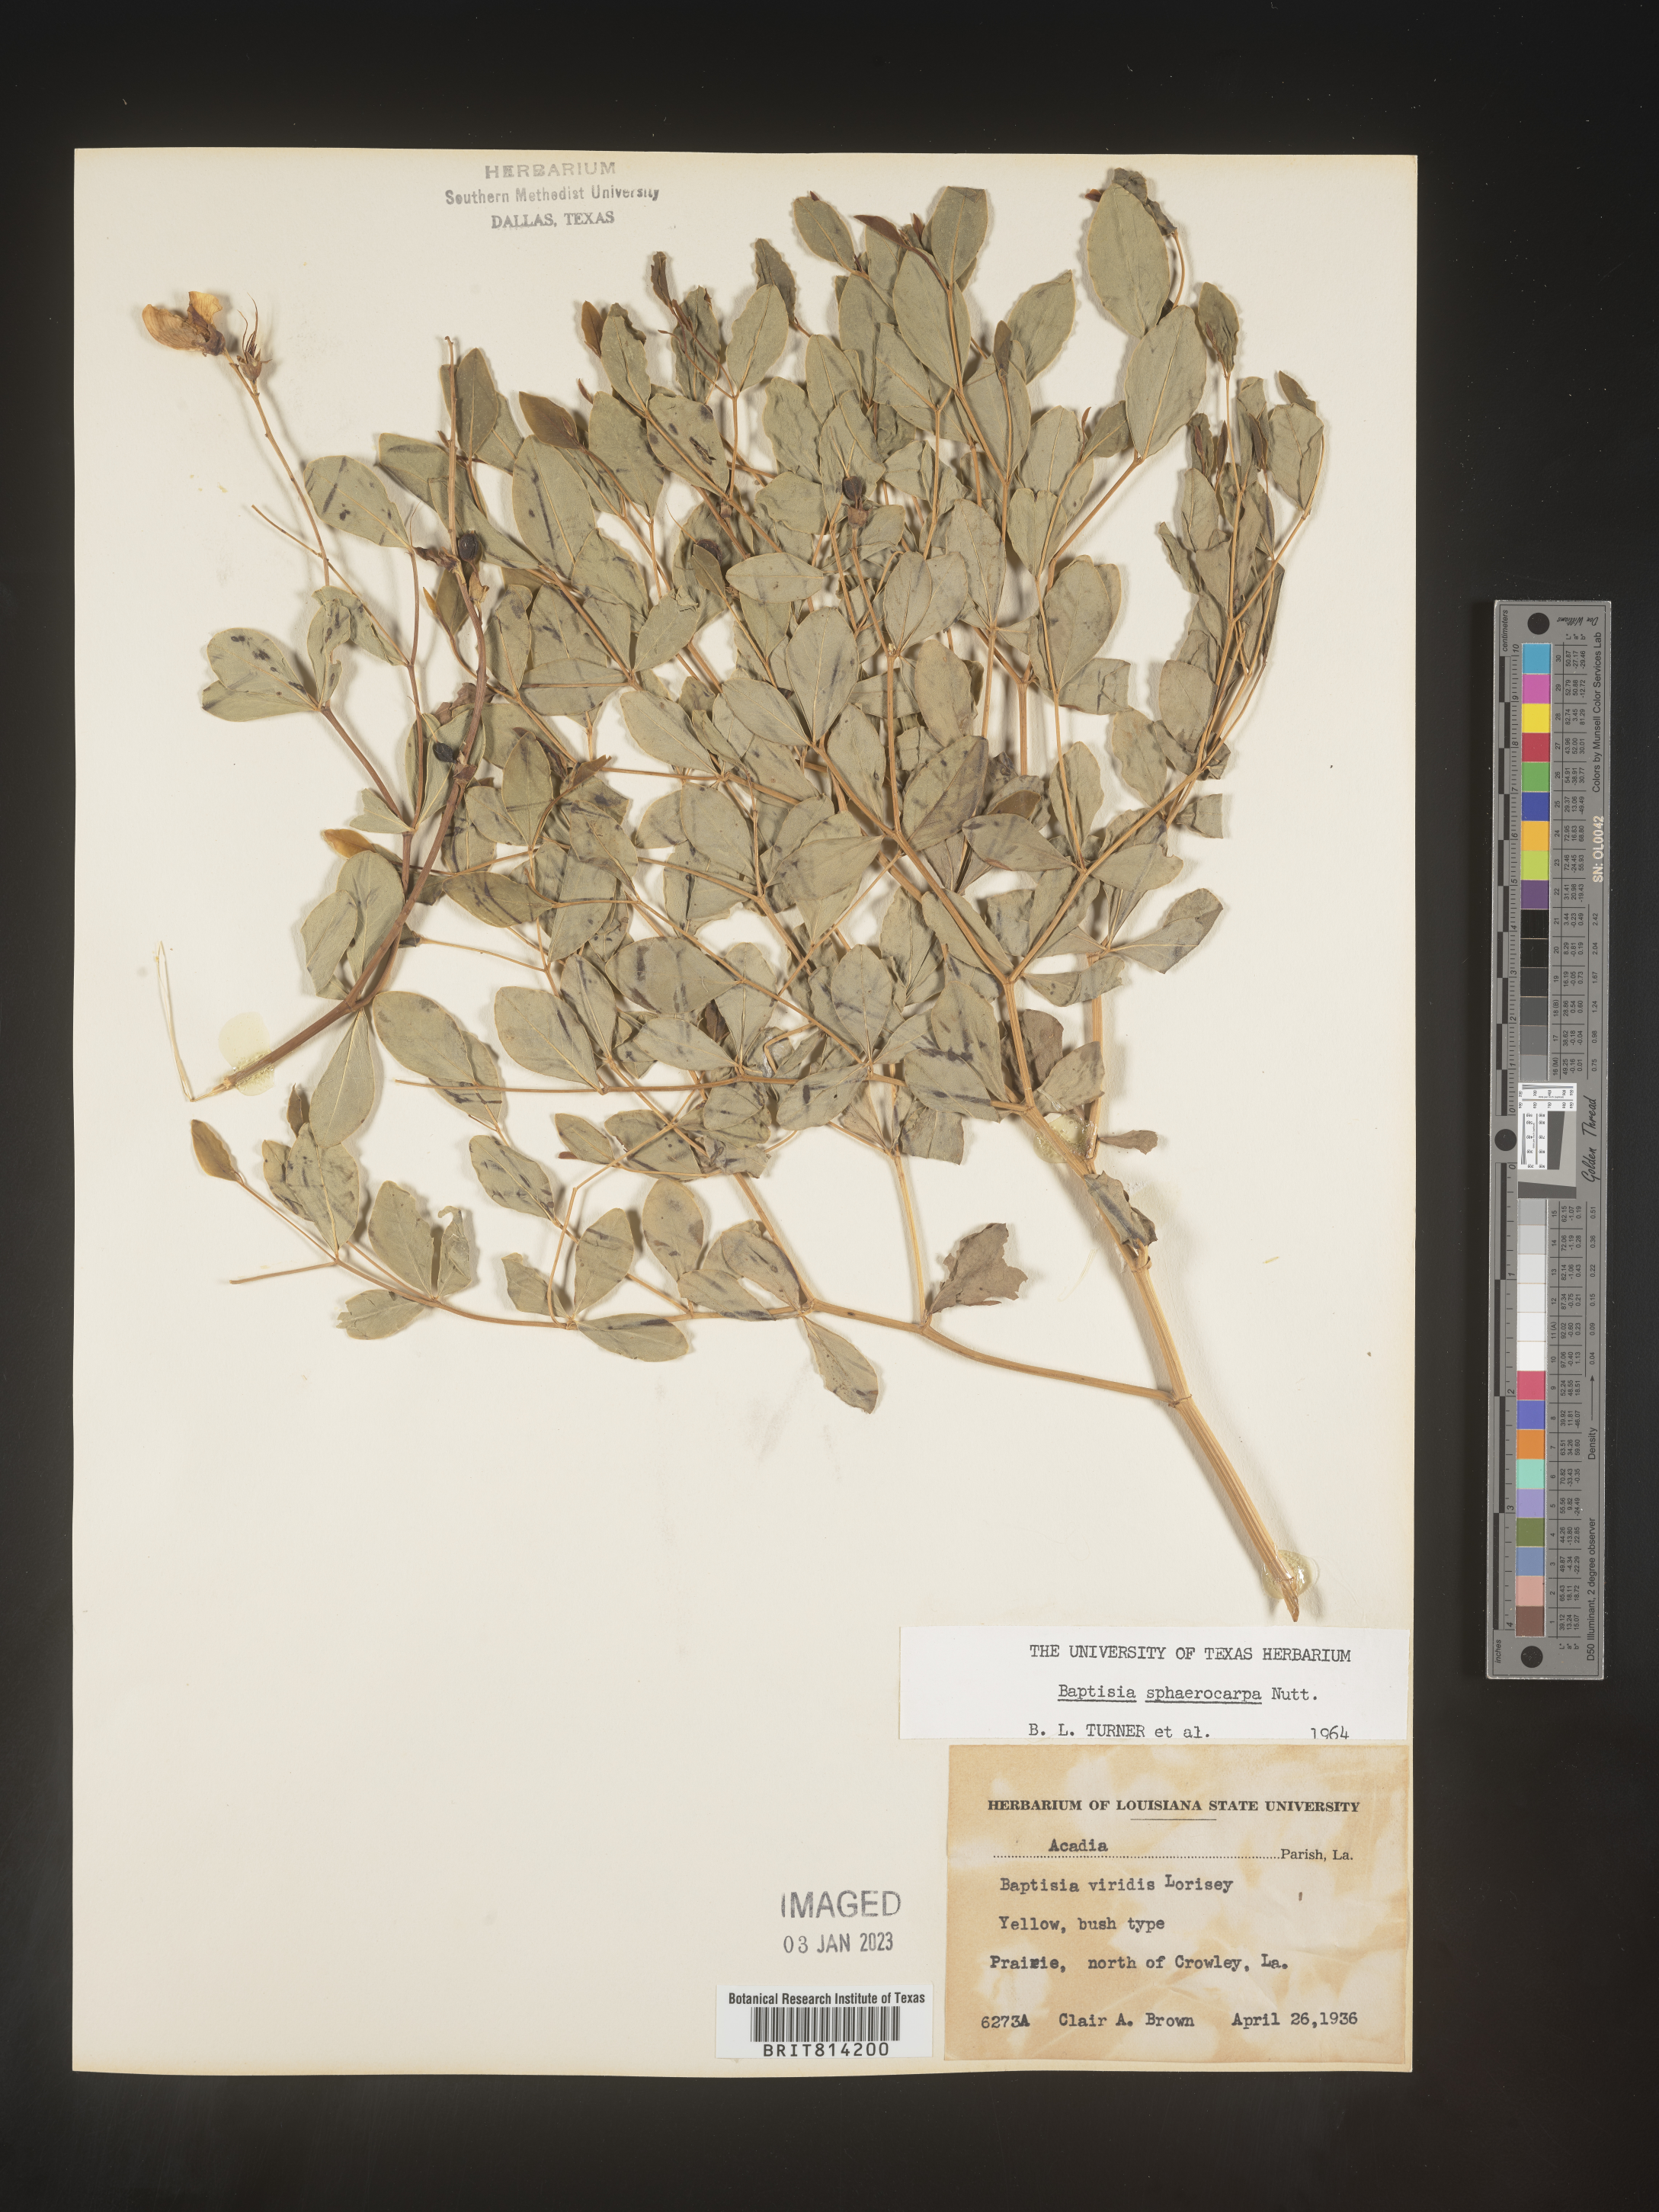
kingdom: Plantae
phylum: Tracheophyta
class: Magnoliopsida
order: Fabales
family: Fabaceae
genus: Baptisia
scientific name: Baptisia sphaerocarpa
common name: Round wild indigo
